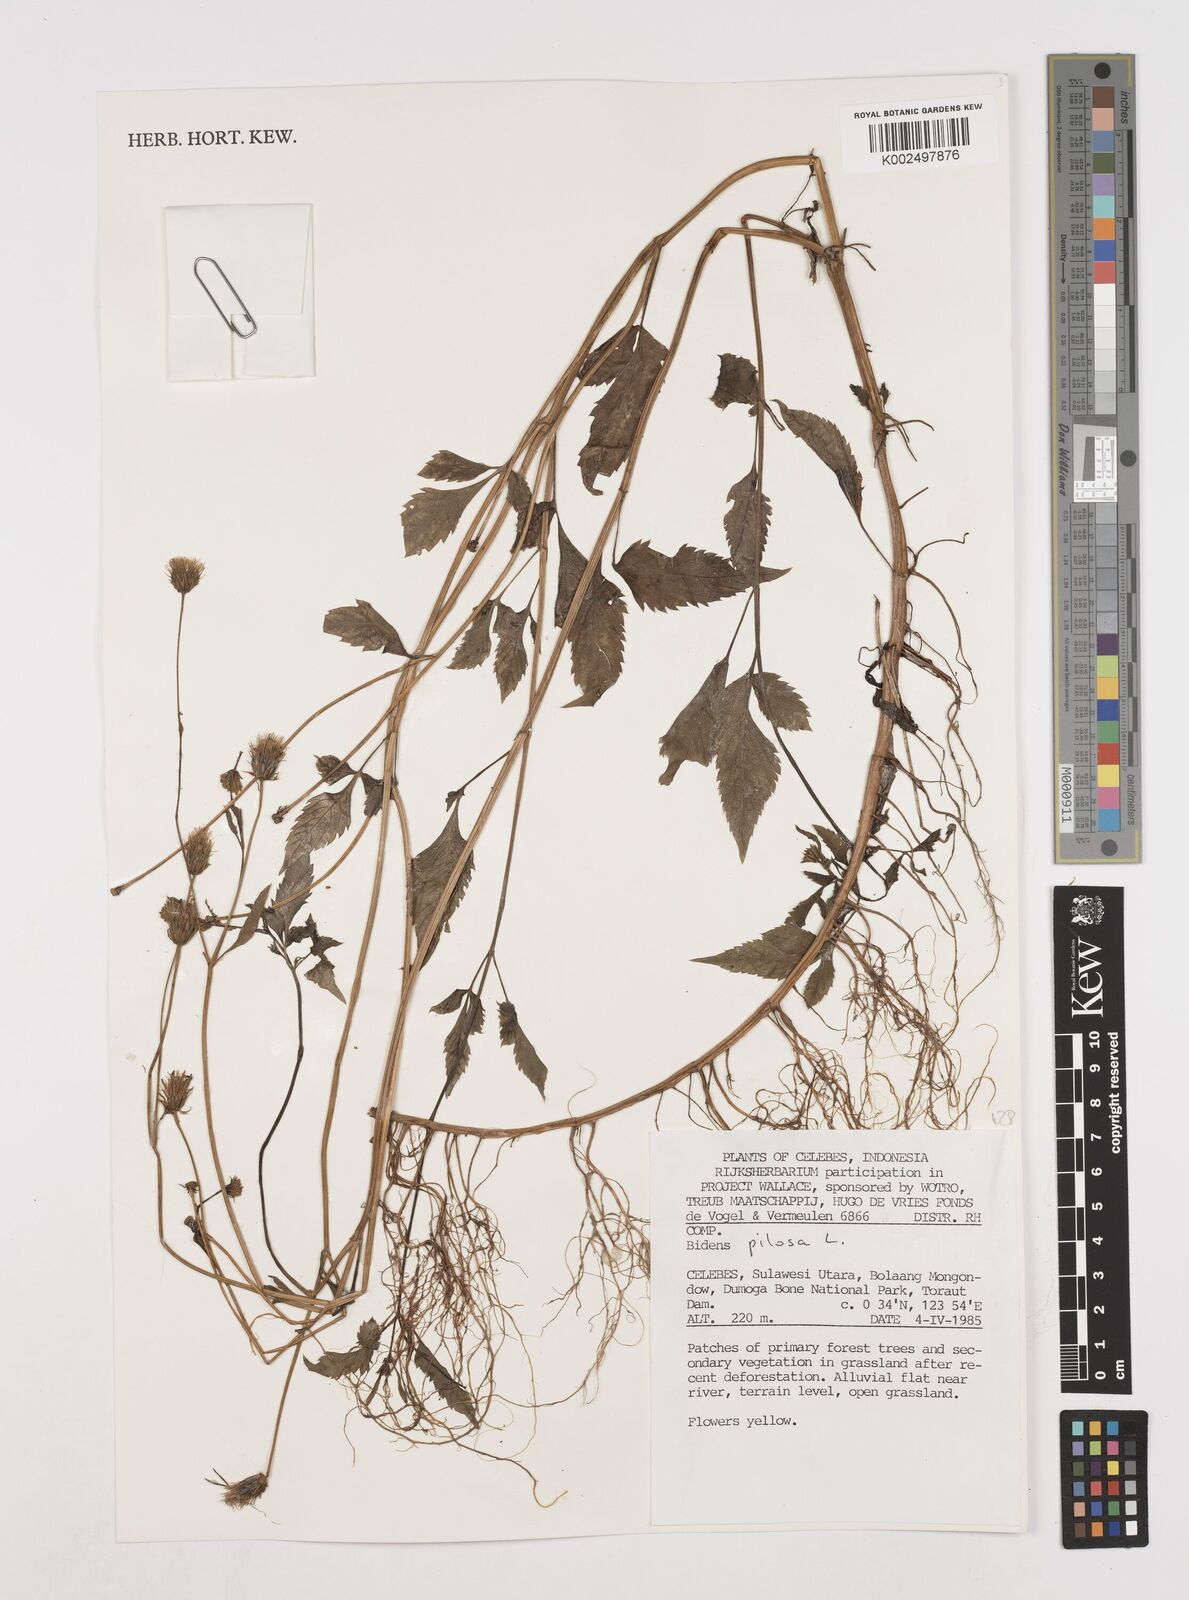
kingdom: Plantae
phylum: Tracheophyta
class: Magnoliopsida
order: Asterales
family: Asteraceae
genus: Bidens
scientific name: Bidens pilosa
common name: Black-jack
